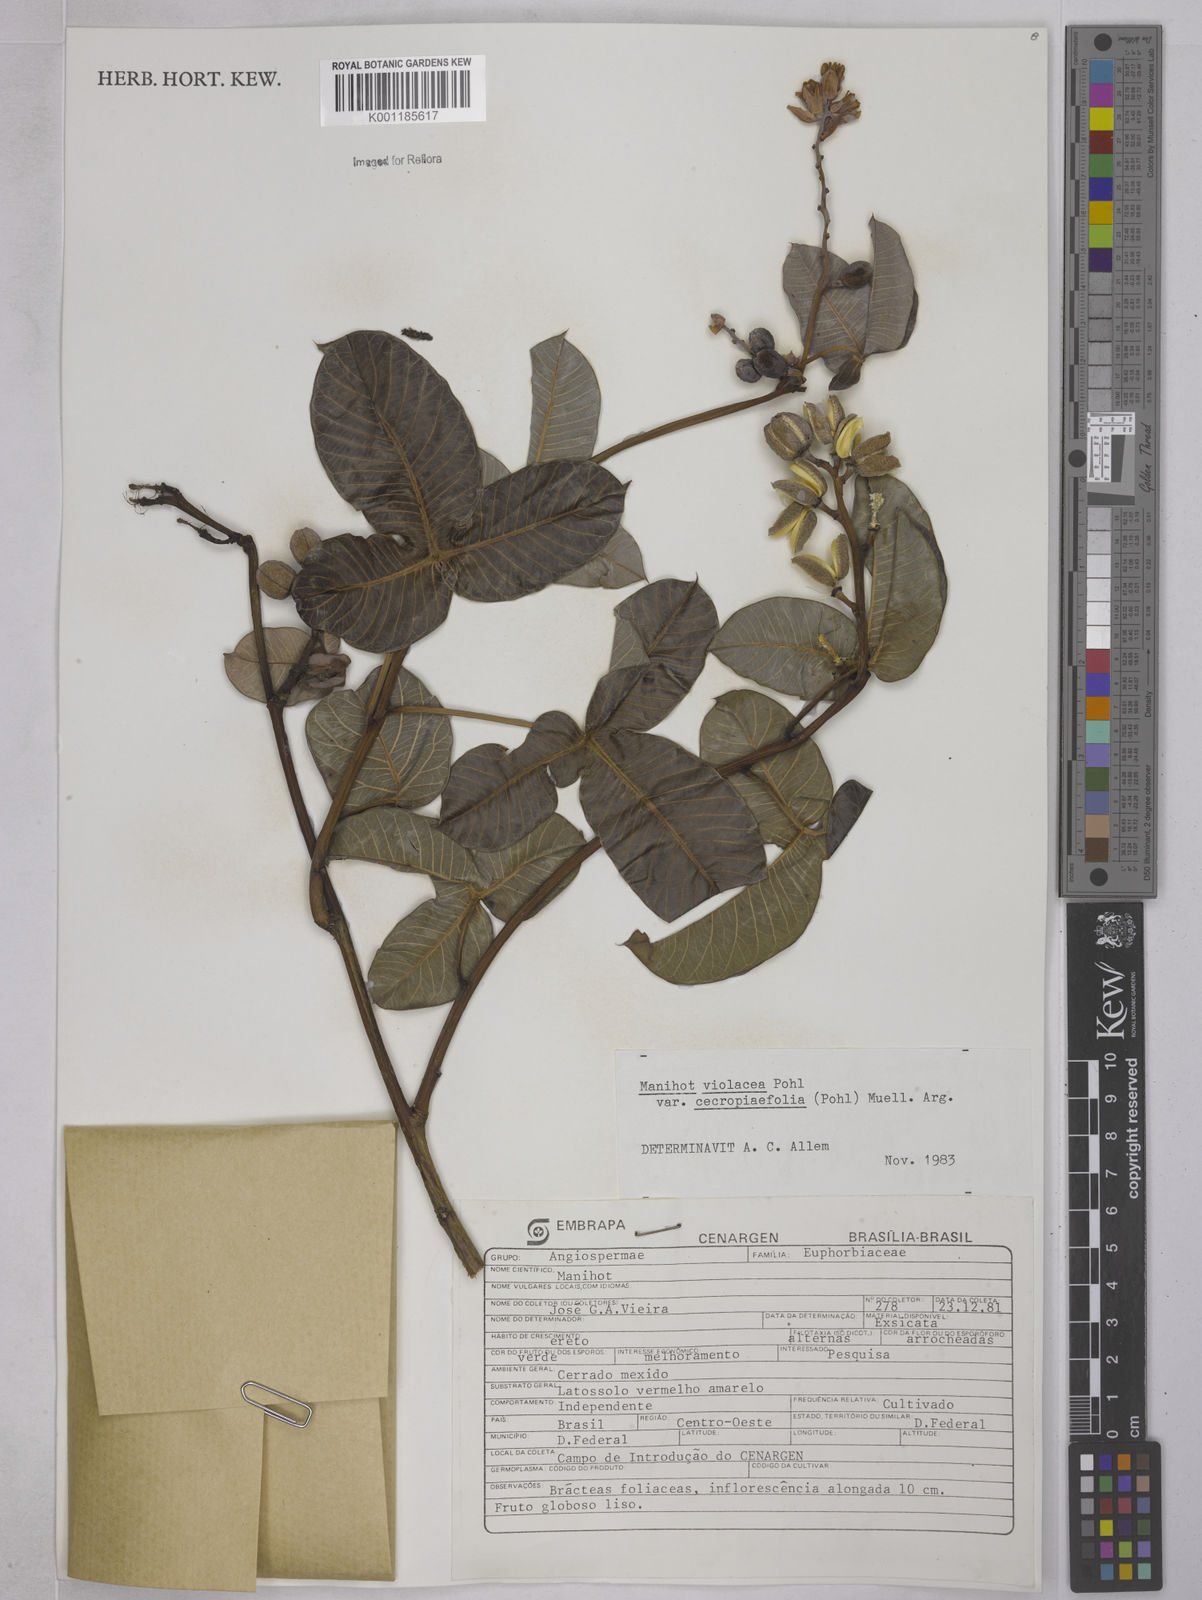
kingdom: Plantae
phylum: Tracheophyta
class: Magnoliopsida
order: Malpighiales
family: Euphorbiaceae
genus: Manihot
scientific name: Manihot cecropiifolia
